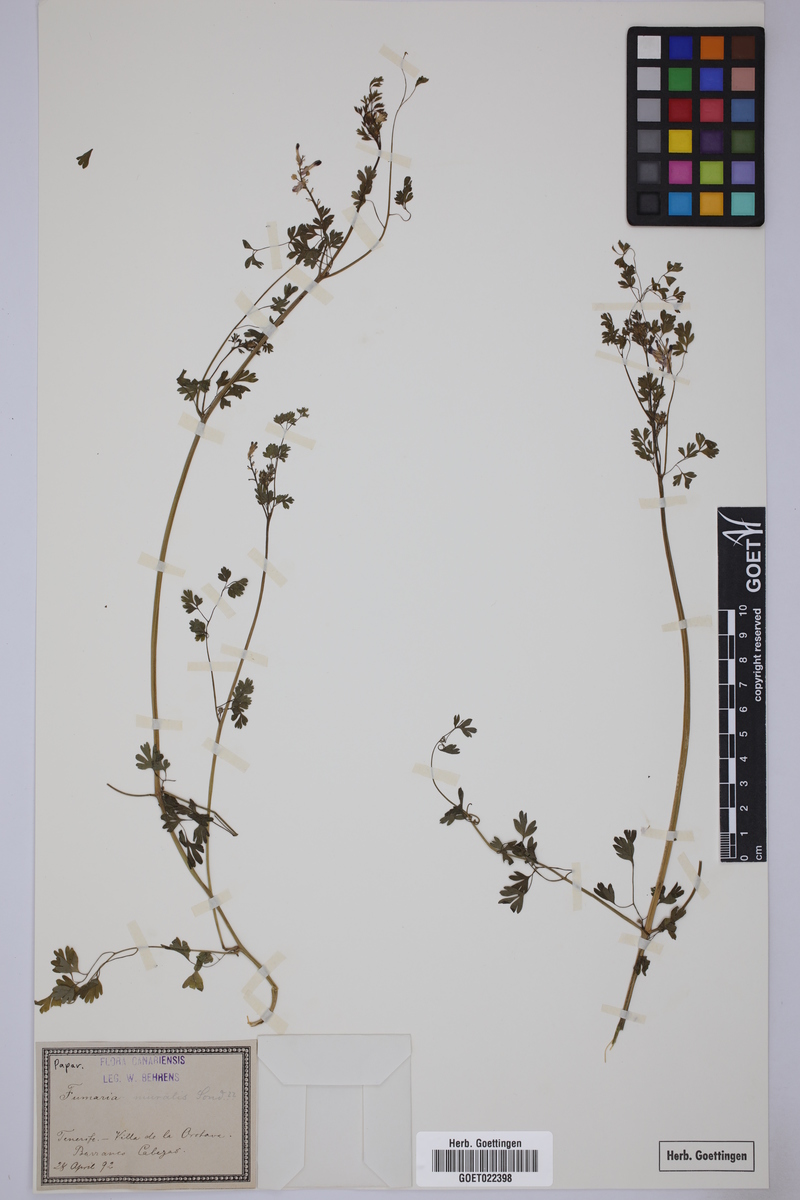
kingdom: Plantae
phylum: Tracheophyta
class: Magnoliopsida
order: Ranunculales
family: Papaveraceae
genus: Fumaria
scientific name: Fumaria muralis
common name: Common ramping-fumitory
